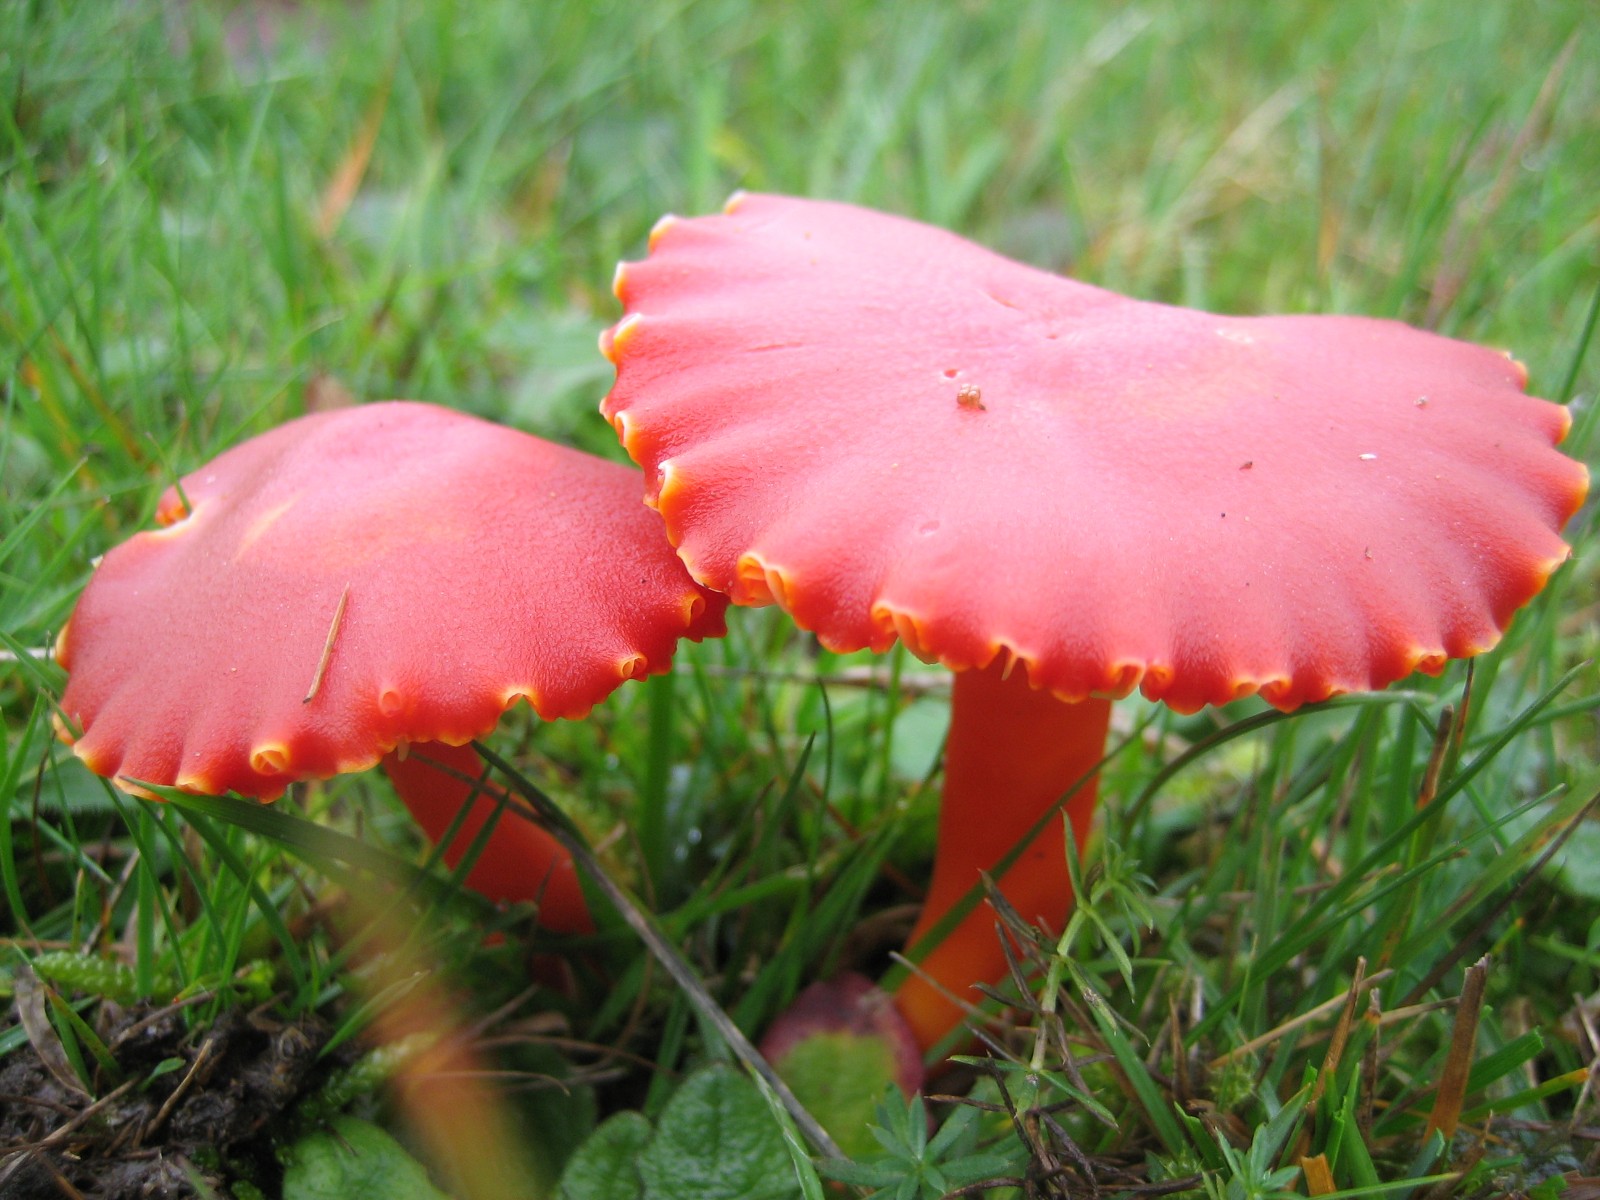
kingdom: Fungi
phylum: Basidiomycota
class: Agaricomycetes
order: Agaricales
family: Hygrophoraceae
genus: Hygrocybe
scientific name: Hygrocybe coccinea
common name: cinnober-vokshat
